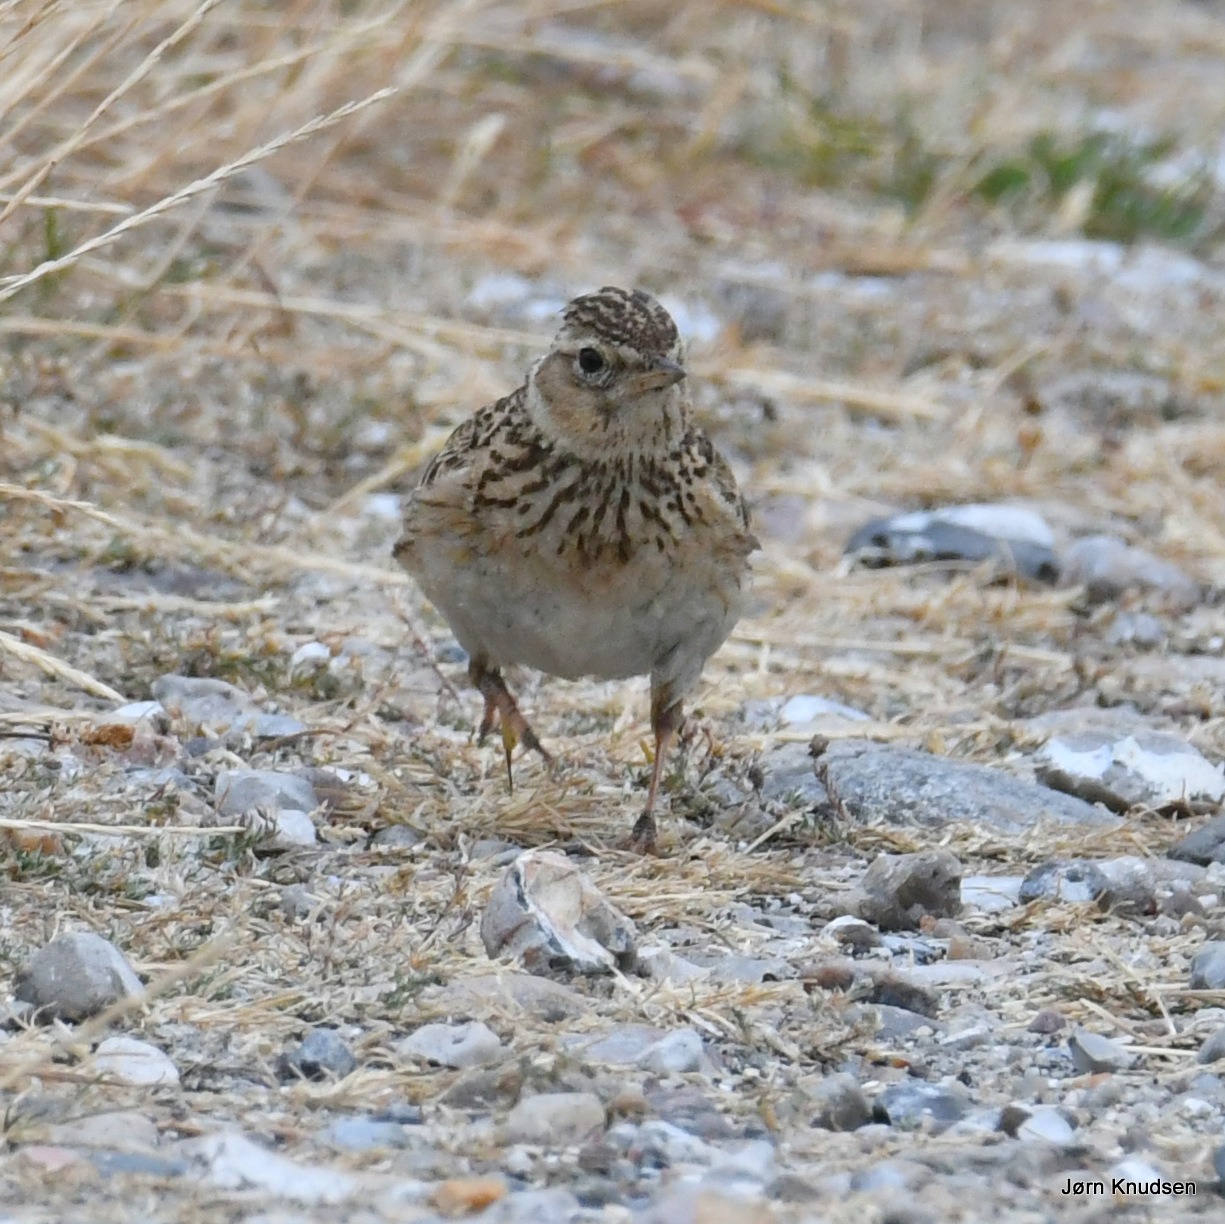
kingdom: Animalia
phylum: Chordata
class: Aves
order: Passeriformes
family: Alaudidae
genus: Alauda
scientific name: Alauda arvensis
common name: Sanglærke
